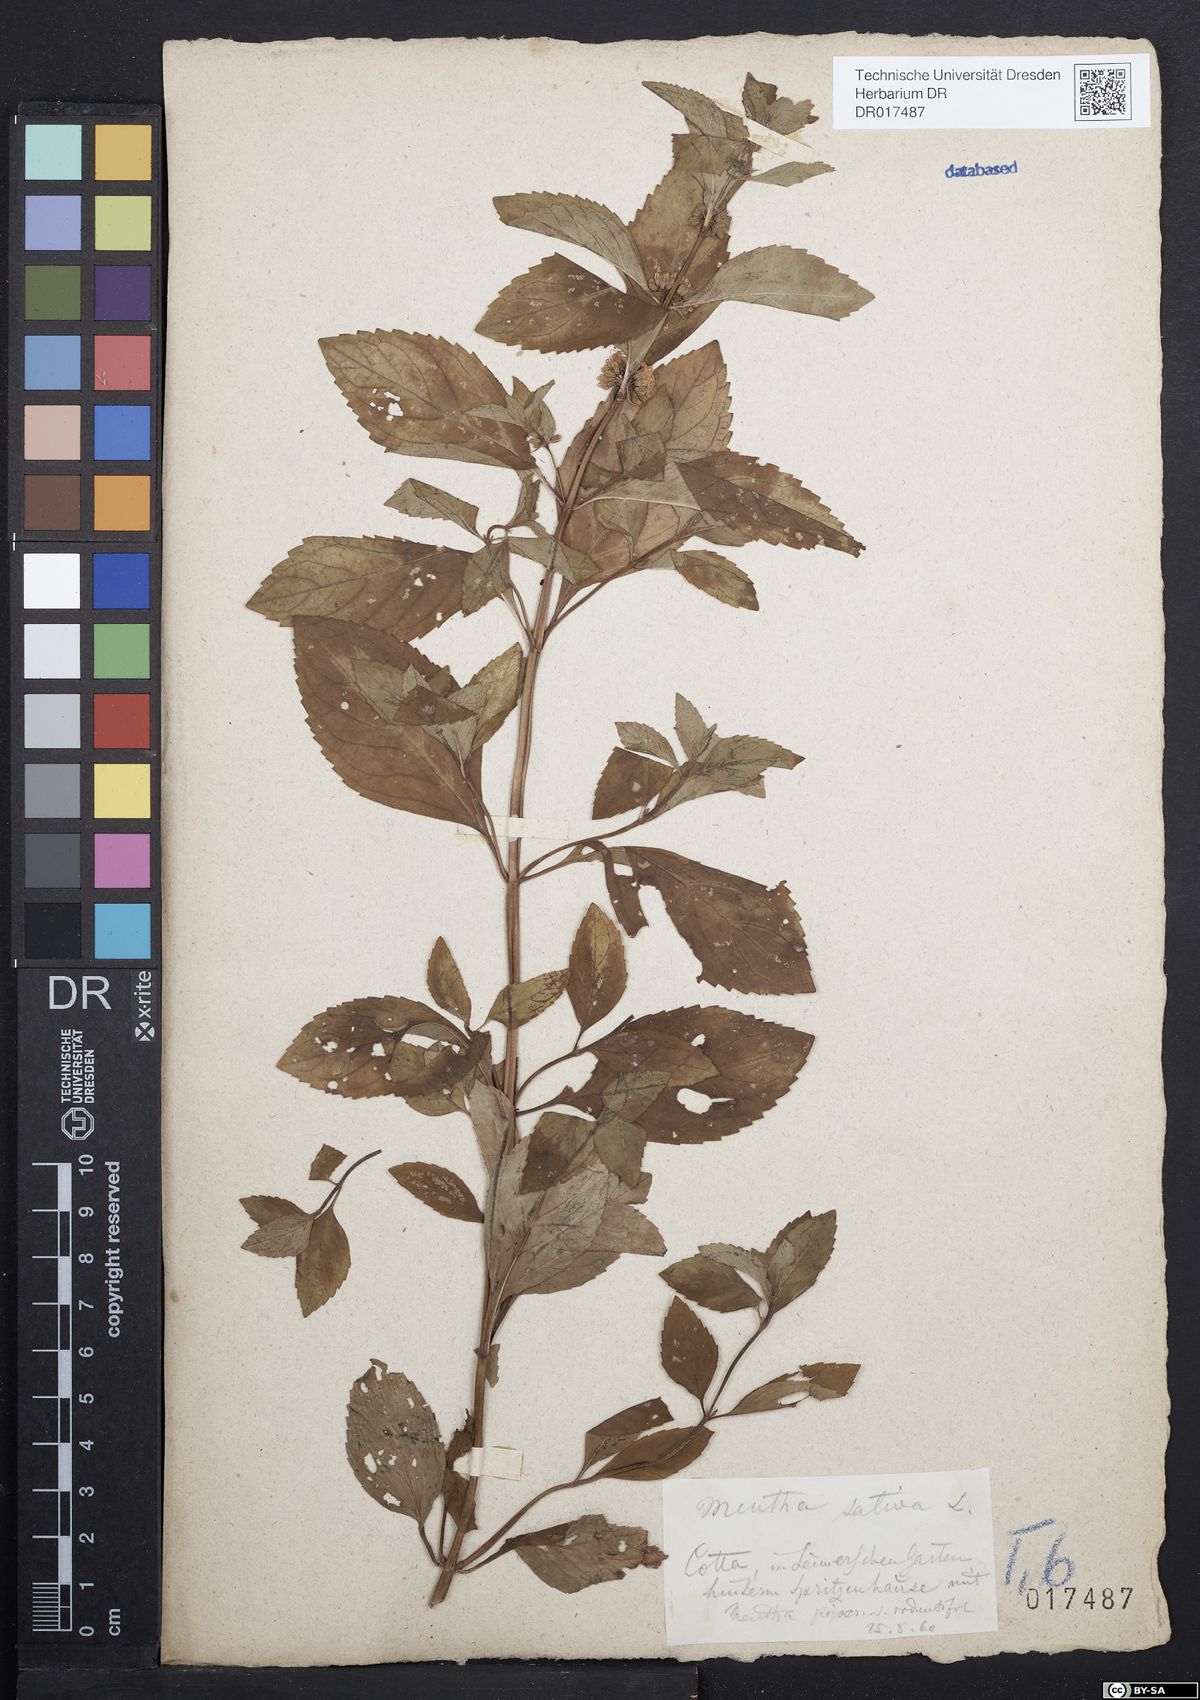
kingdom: Plantae
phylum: Tracheophyta
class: Magnoliopsida
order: Lamiales
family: Lamiaceae
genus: Mentha
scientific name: Mentha verticillata
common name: Mint
